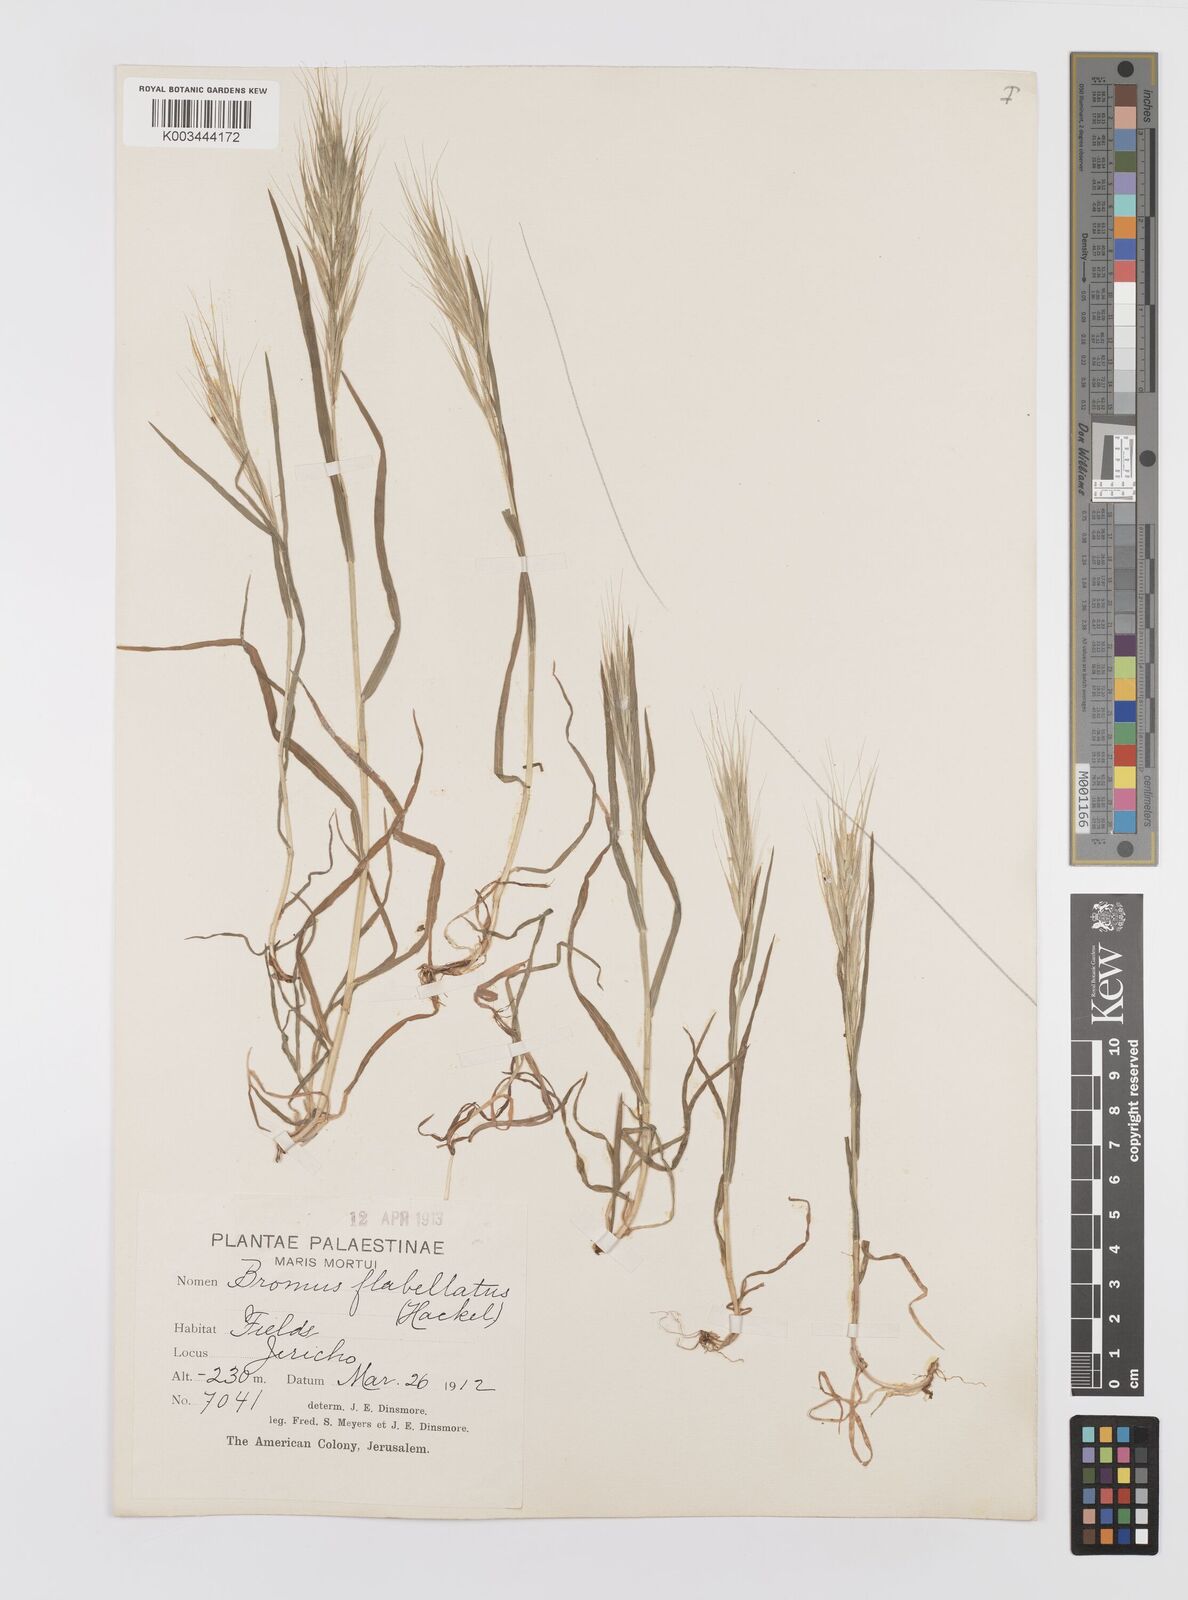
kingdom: Plantae
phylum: Tracheophyta
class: Liliopsida
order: Poales
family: Poaceae
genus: Bromus
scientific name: Bromus madritensis
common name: Compact brome
